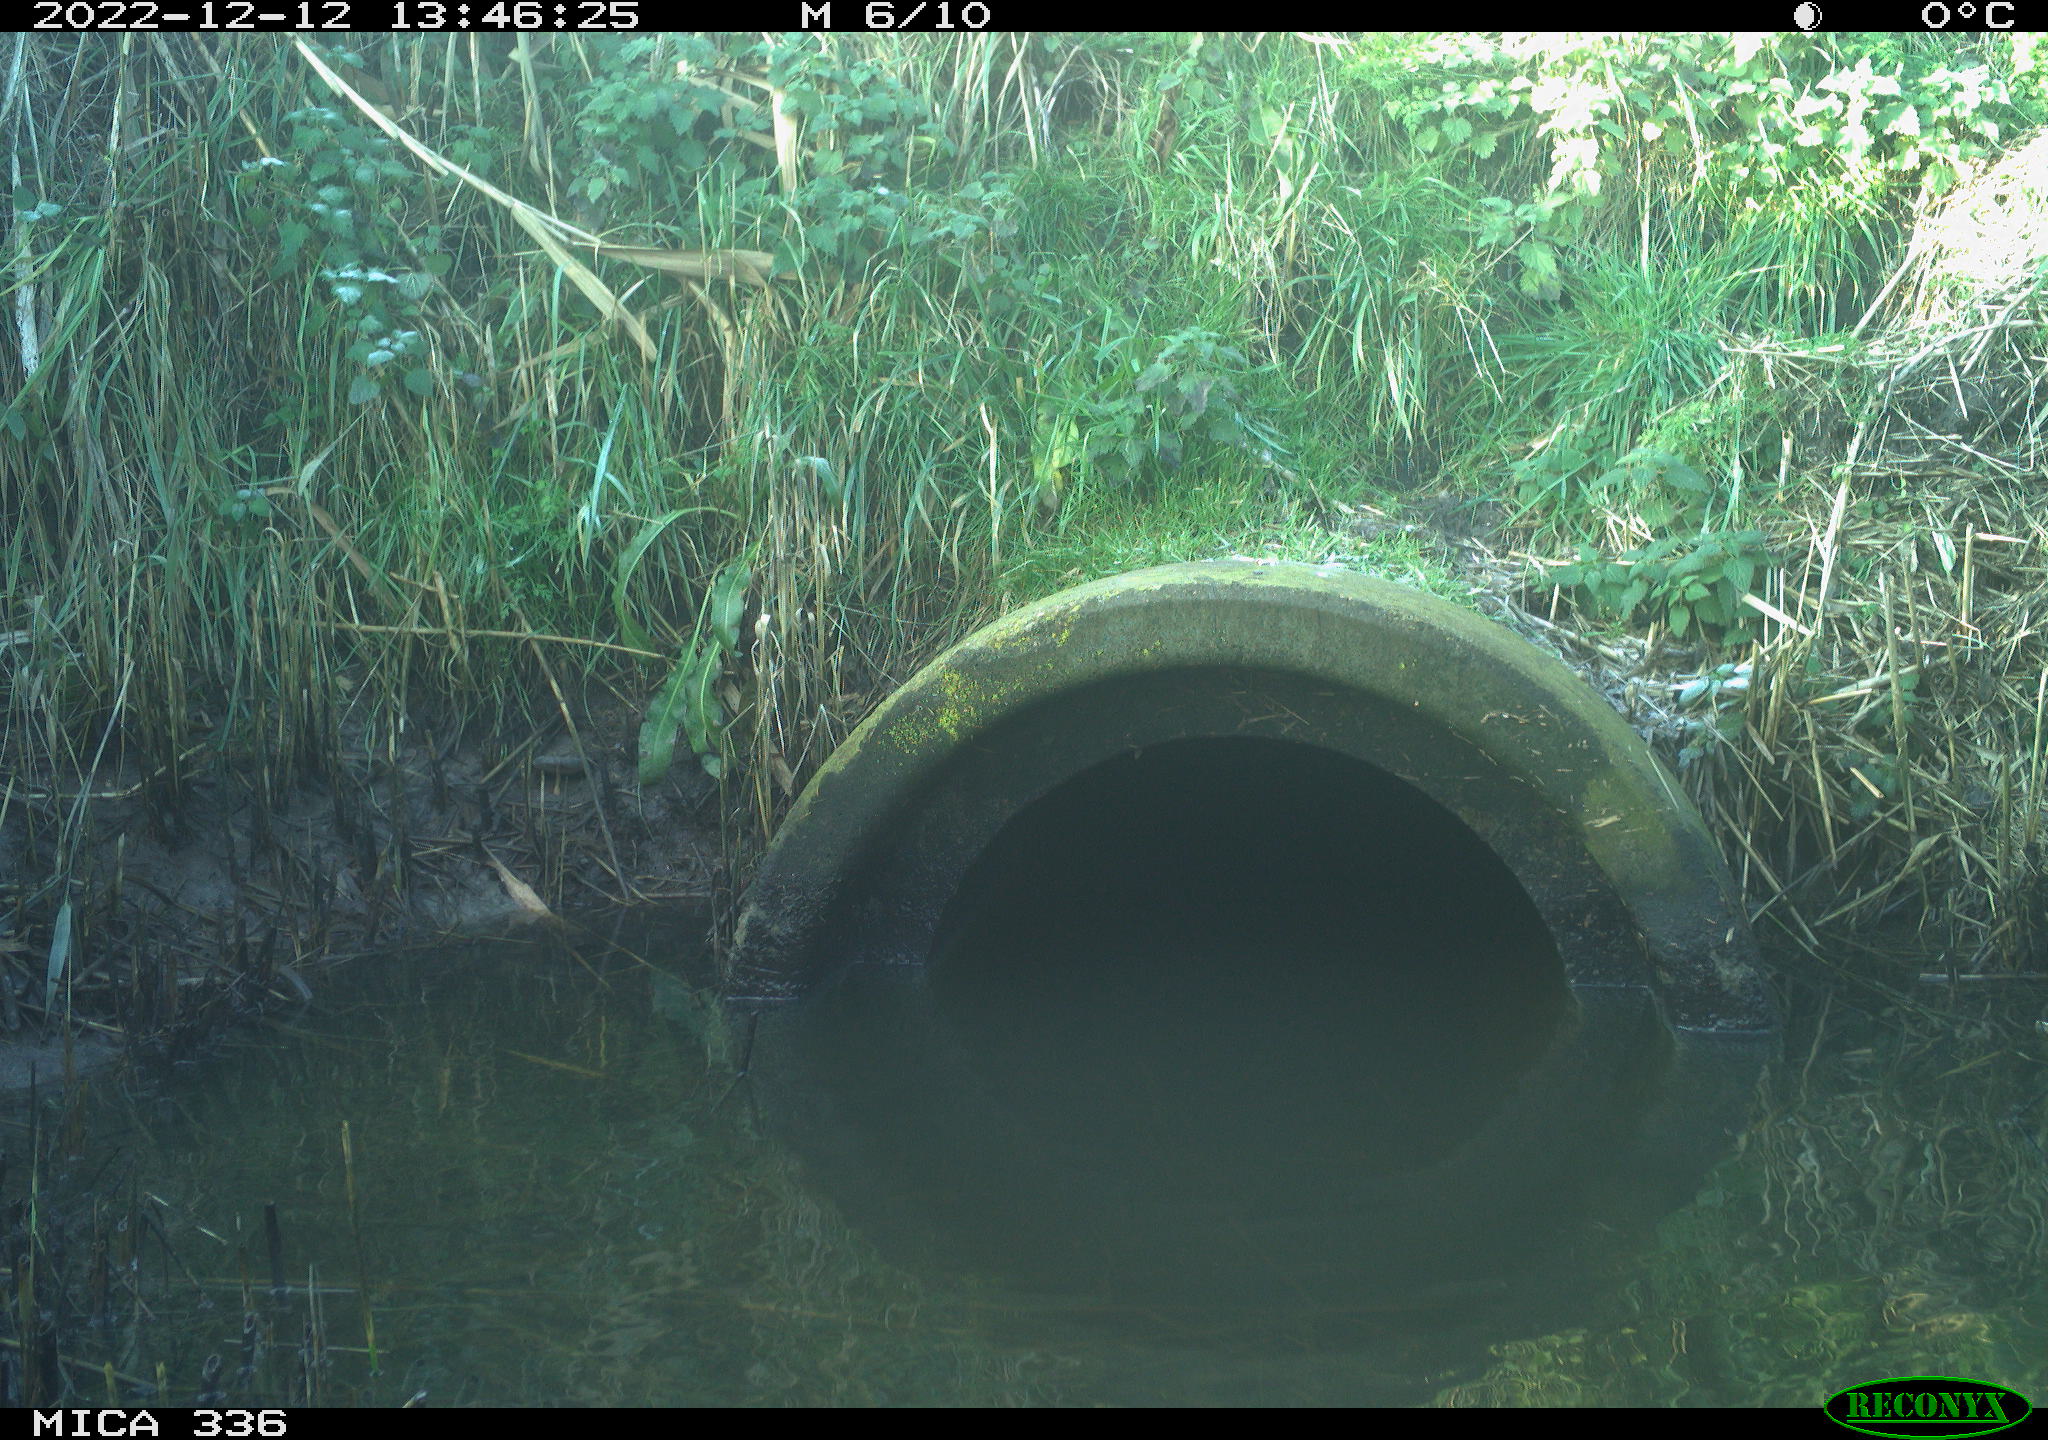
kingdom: Animalia
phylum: Chordata
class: Mammalia
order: Rodentia
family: Muridae
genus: Rattus
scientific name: Rattus norvegicus
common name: Brown rat
